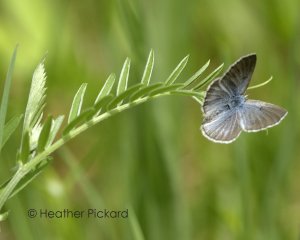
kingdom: Animalia
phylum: Arthropoda
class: Insecta
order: Lepidoptera
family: Lycaenidae
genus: Glaucopsyche
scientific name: Glaucopsyche lygdamus
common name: Silvery Blue
